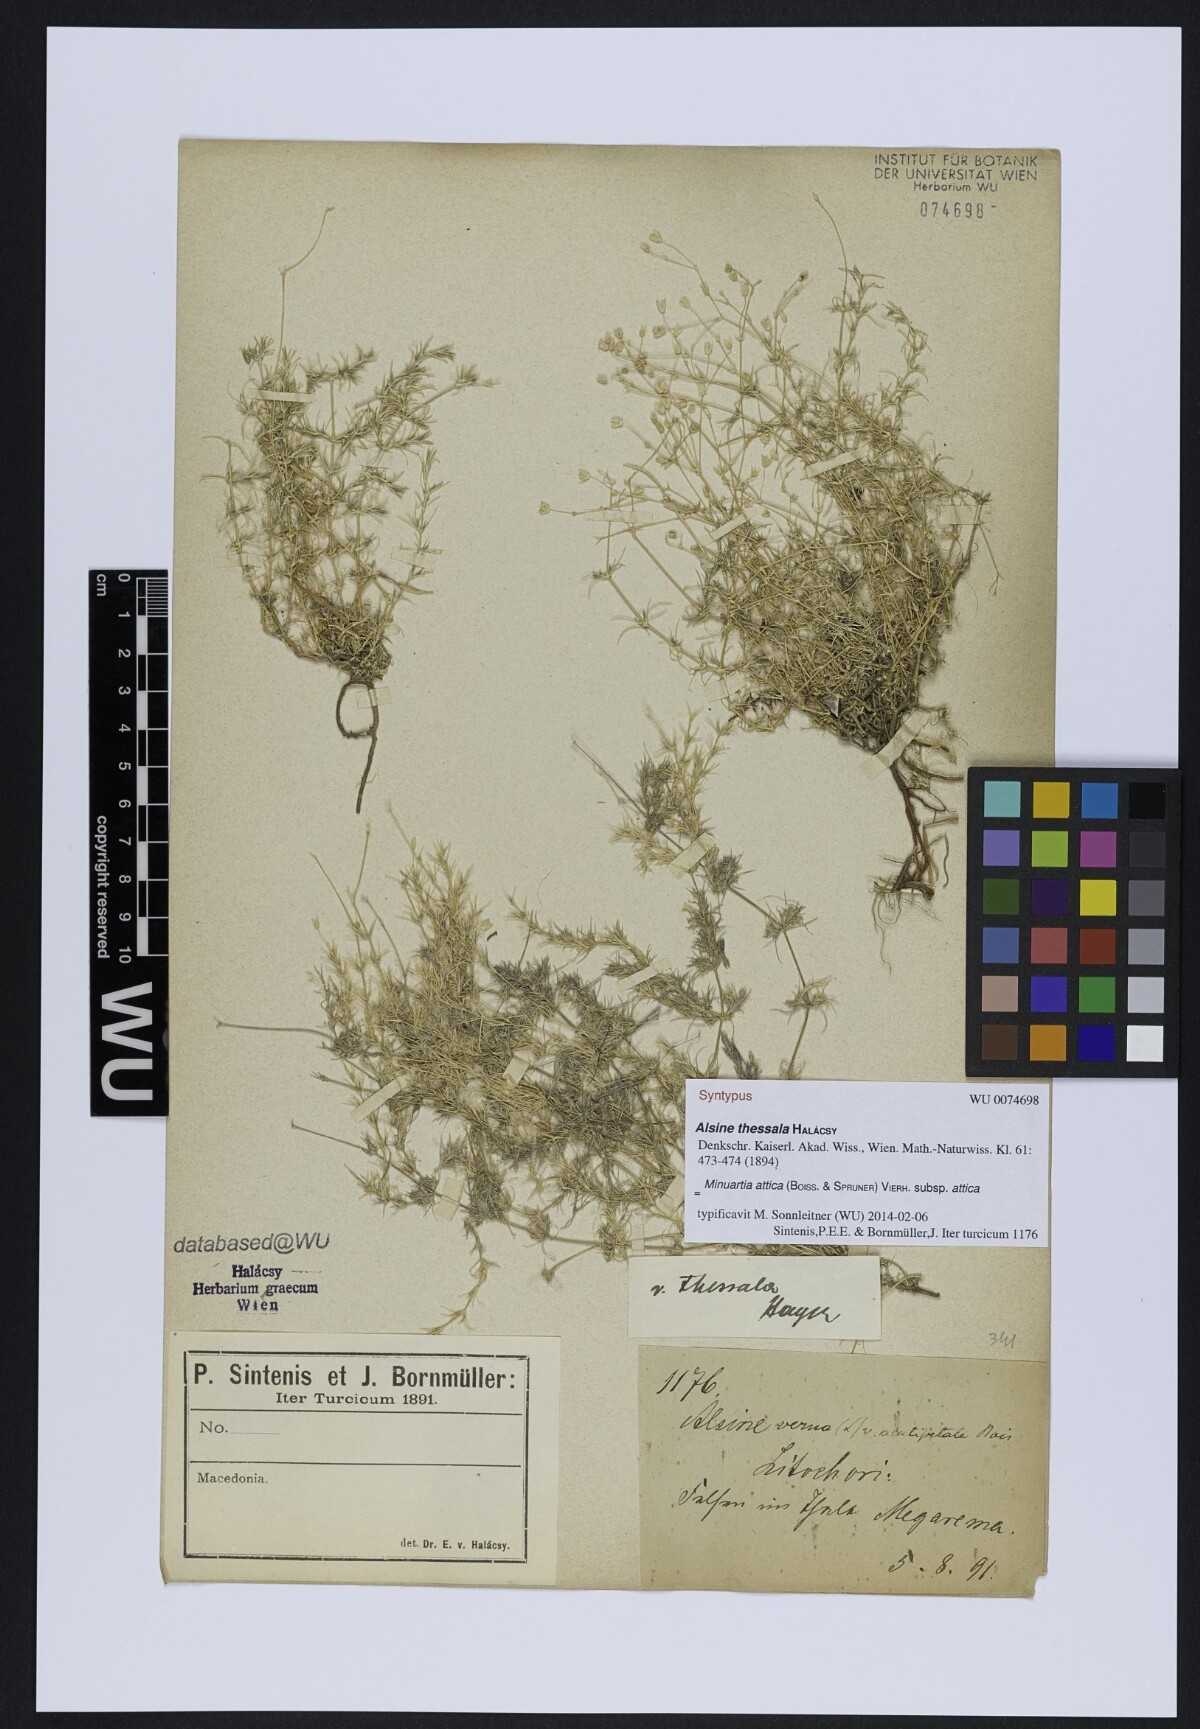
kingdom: Plantae
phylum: Tracheophyta
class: Magnoliopsida
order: Caryophyllales
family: Caryophyllaceae
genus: Sabulina
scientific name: Sabulina attica
